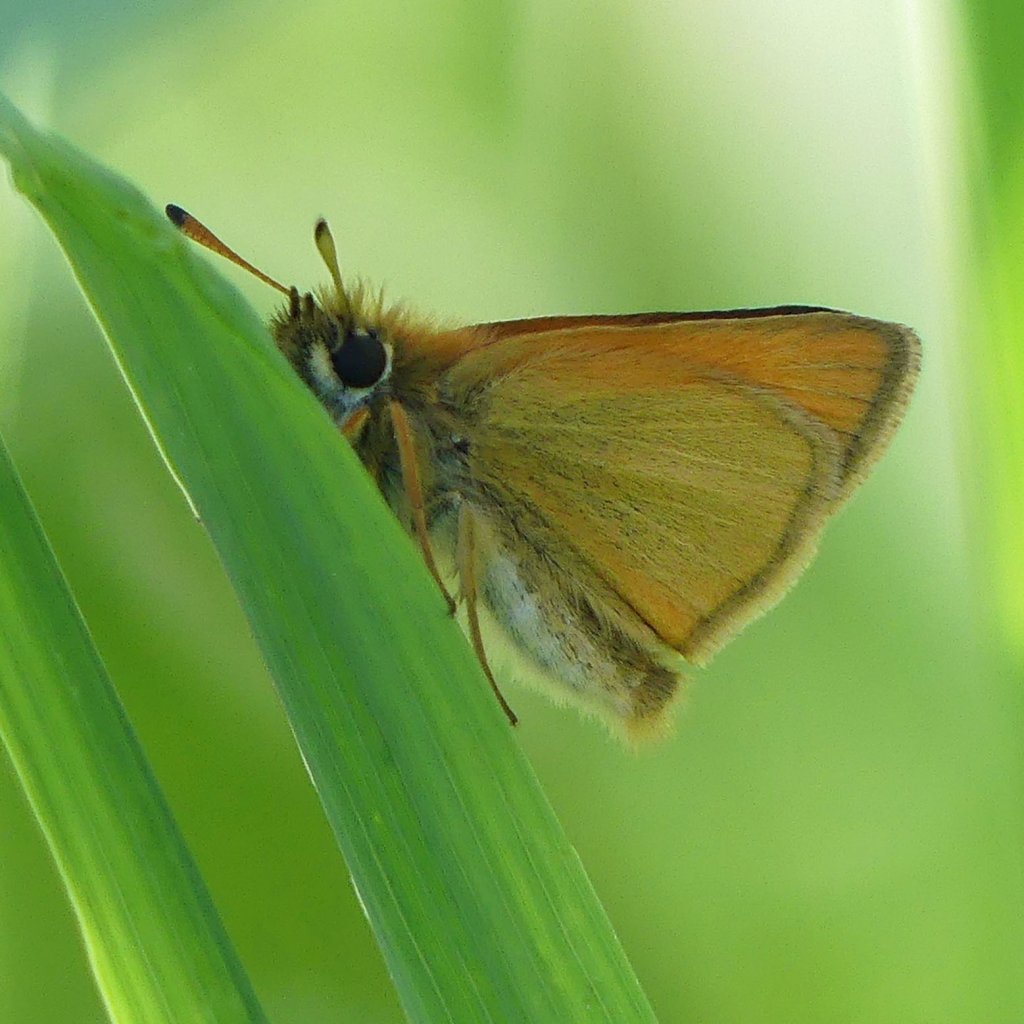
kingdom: Animalia
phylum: Arthropoda
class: Insecta
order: Lepidoptera
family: Hesperiidae
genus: Thymelicus
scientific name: Thymelicus lineola
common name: European Skipper
